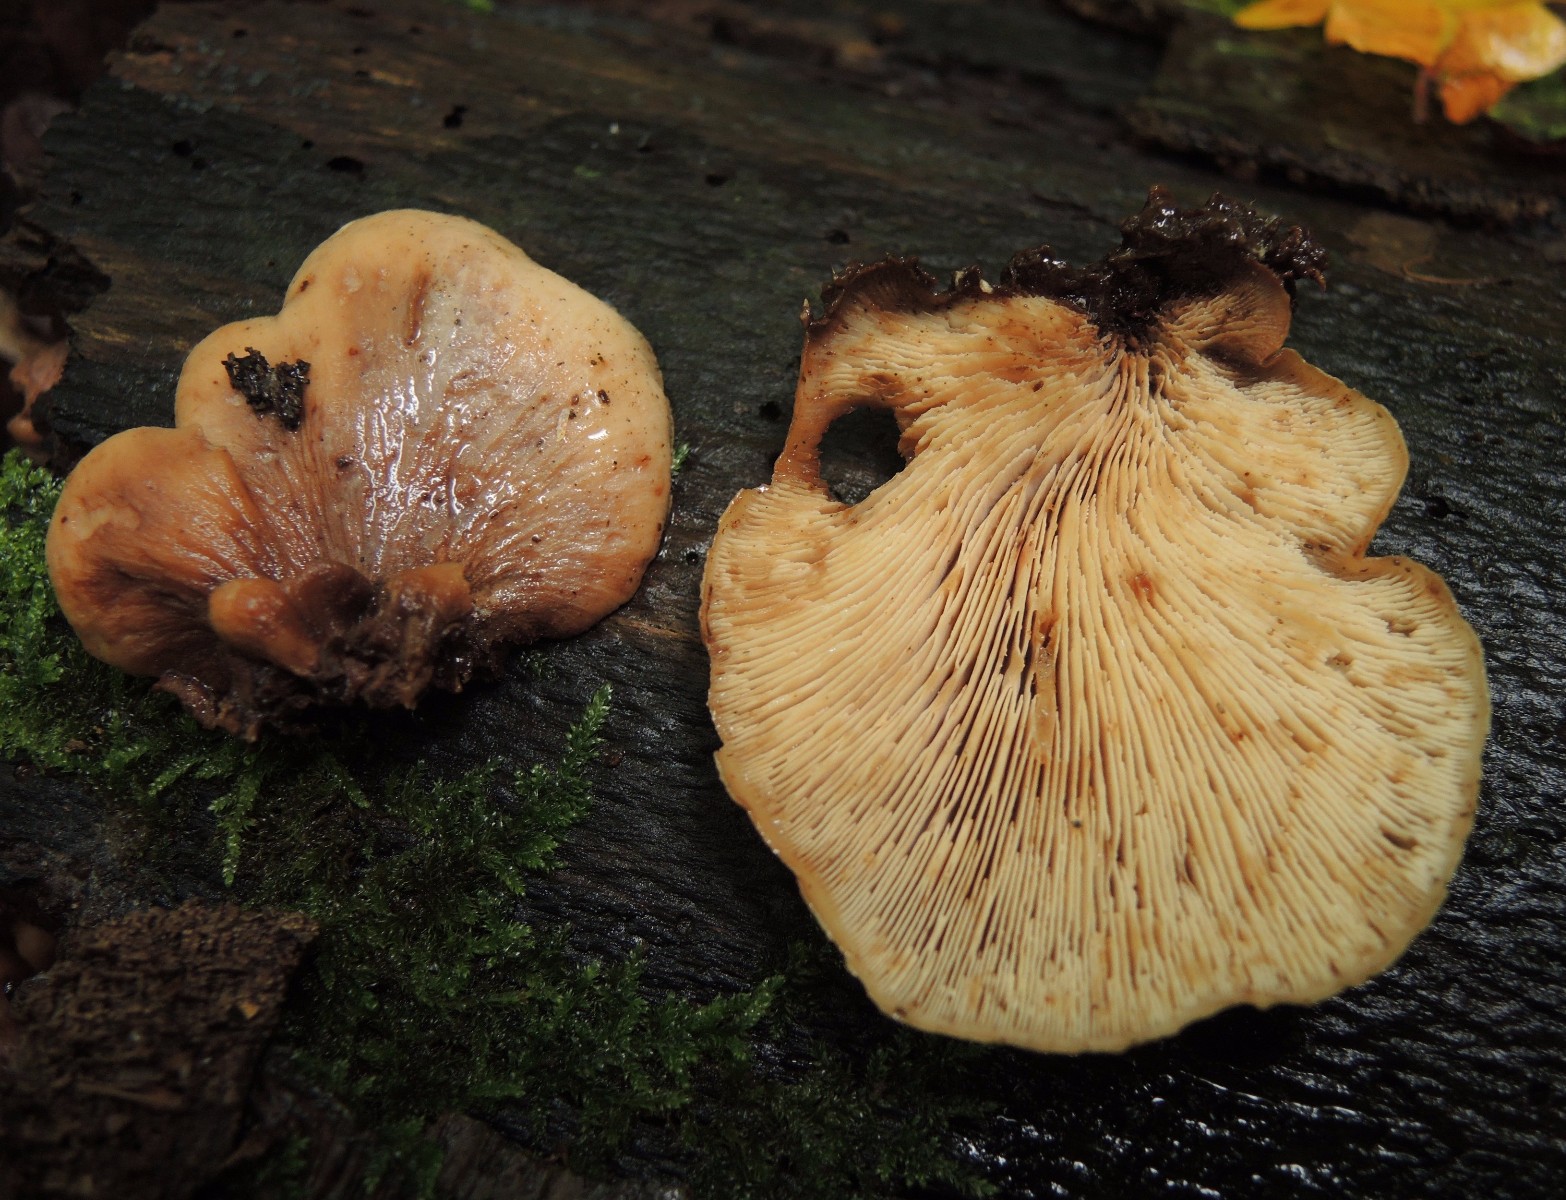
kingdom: Fungi
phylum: Basidiomycota
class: Agaricomycetes
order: Russulales
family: Auriscalpiaceae
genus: Lentinellus
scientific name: Lentinellus ursinus
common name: børstehåret savbladhat
